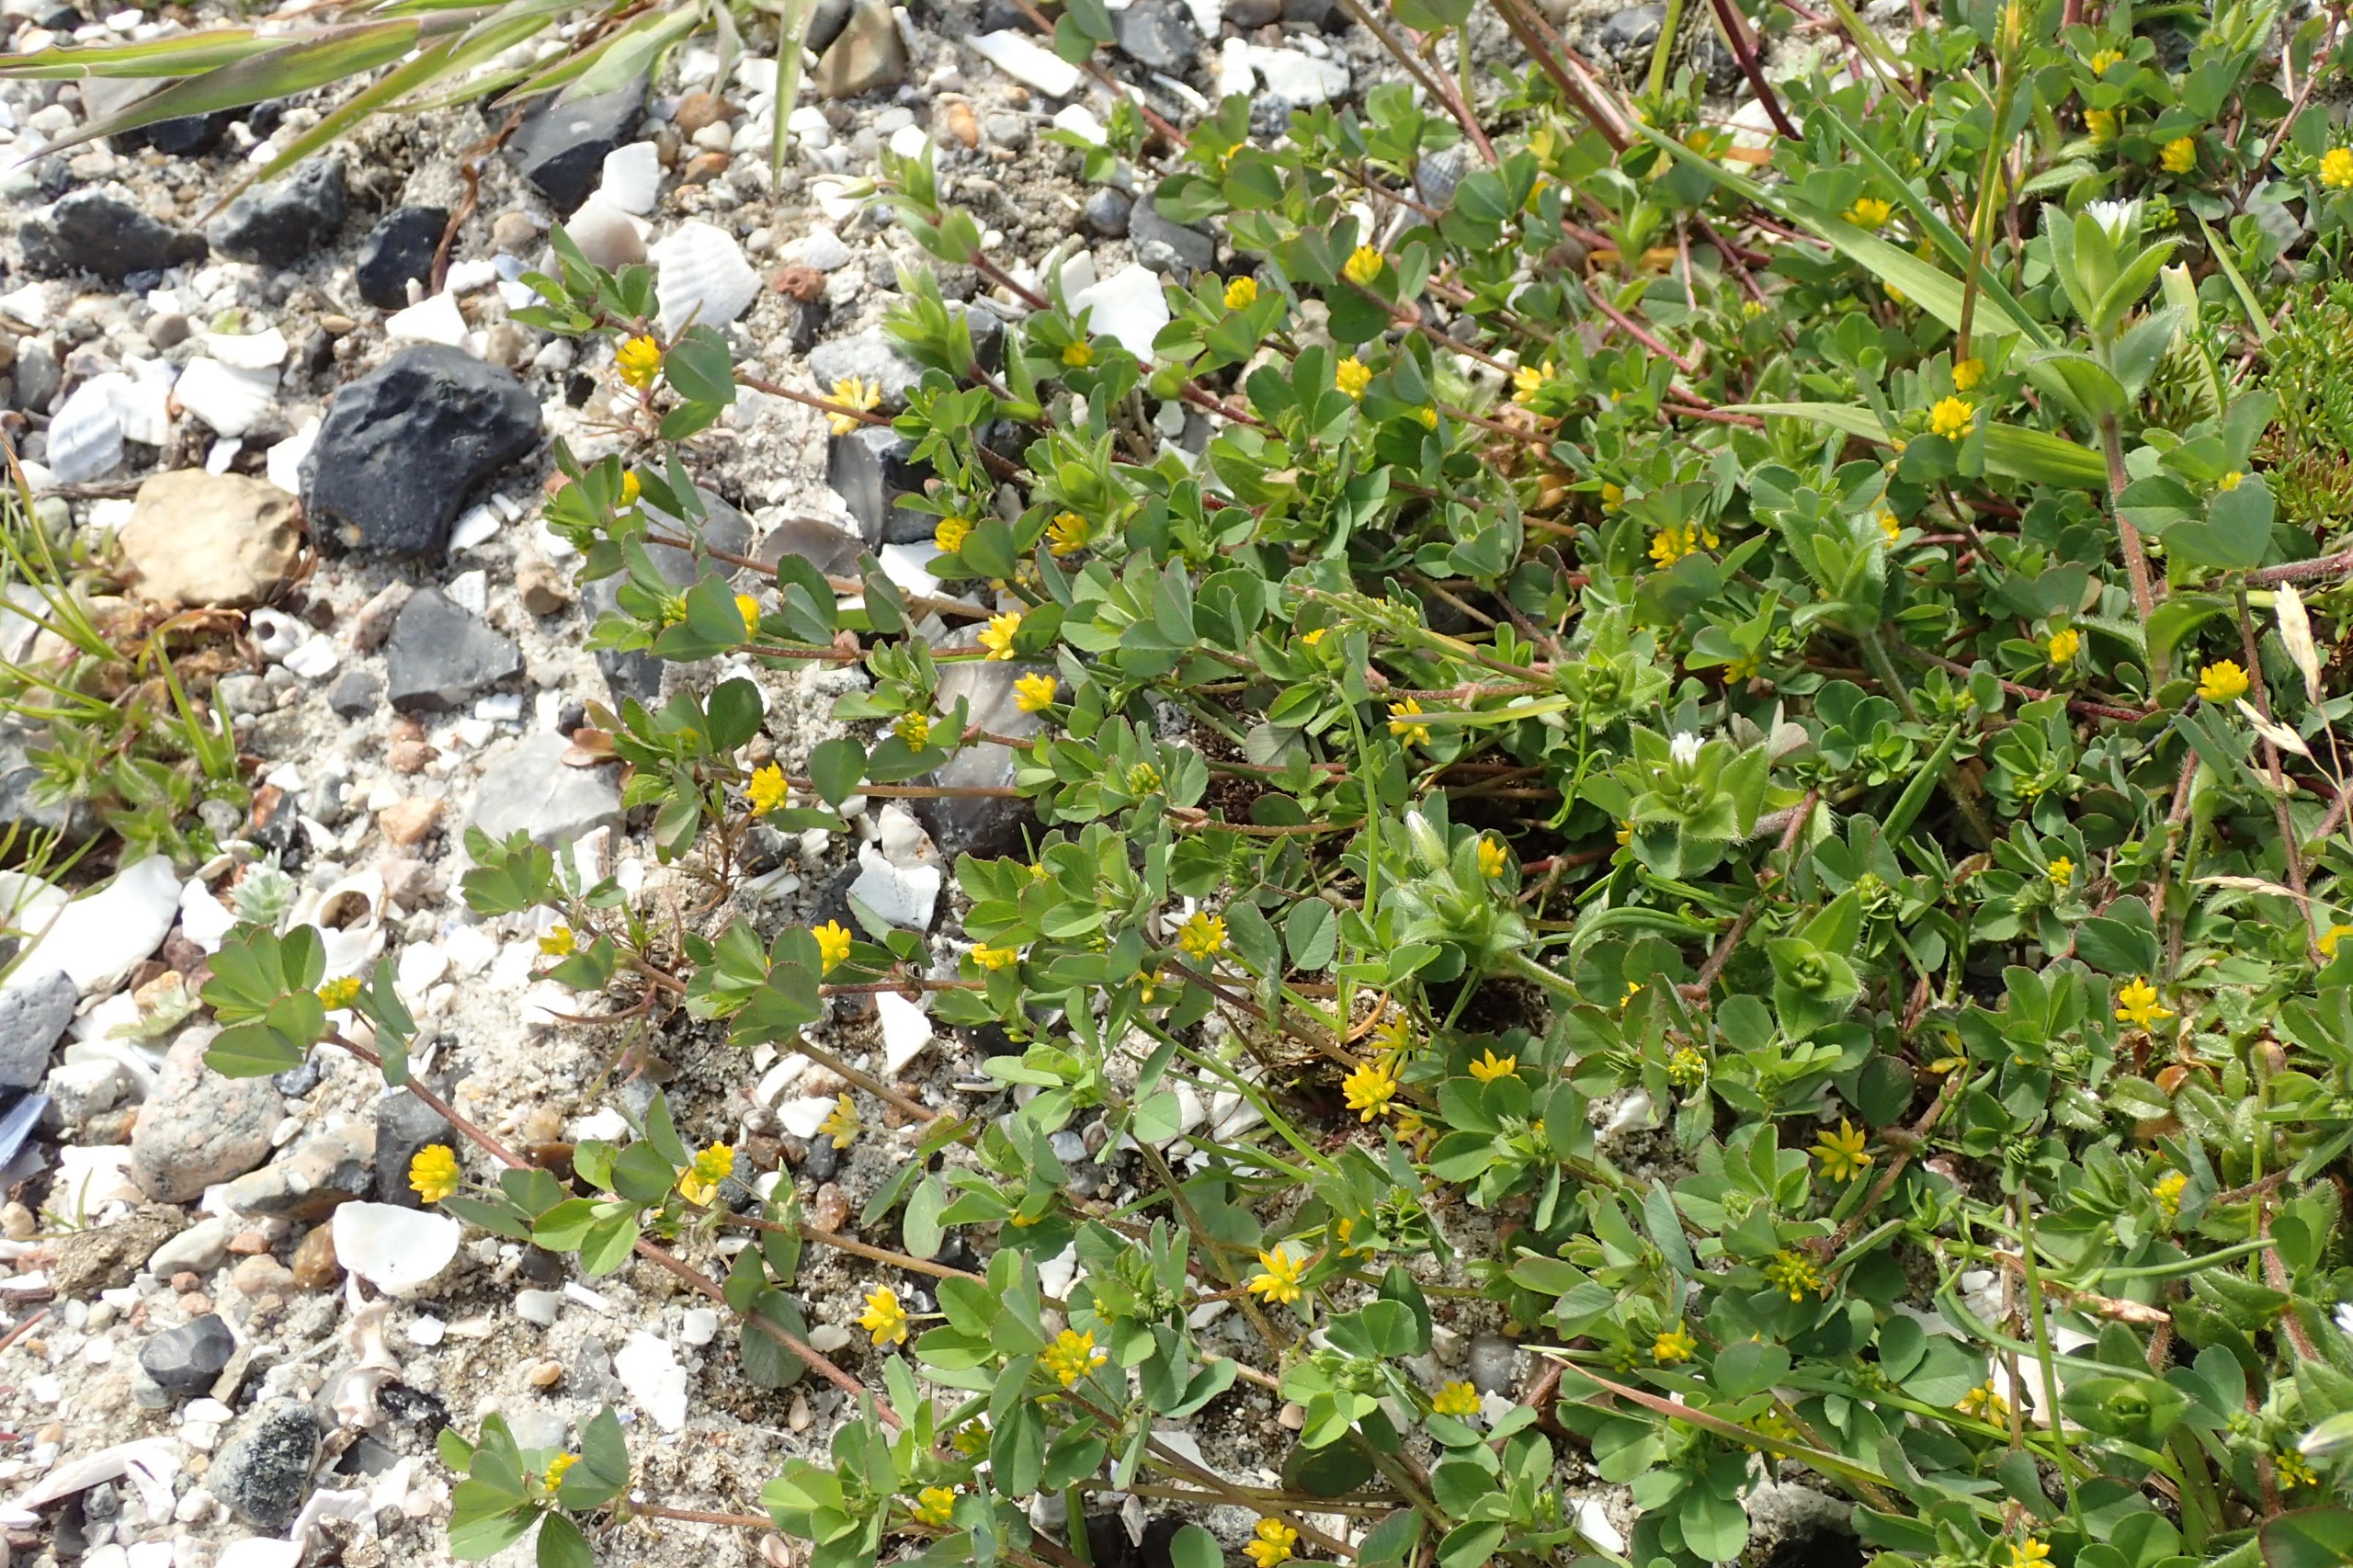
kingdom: Plantae
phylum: Tracheophyta
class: Magnoliopsida
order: Fabales
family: Fabaceae
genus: Trifolium
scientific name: Trifolium dubium
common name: Fin kløver
